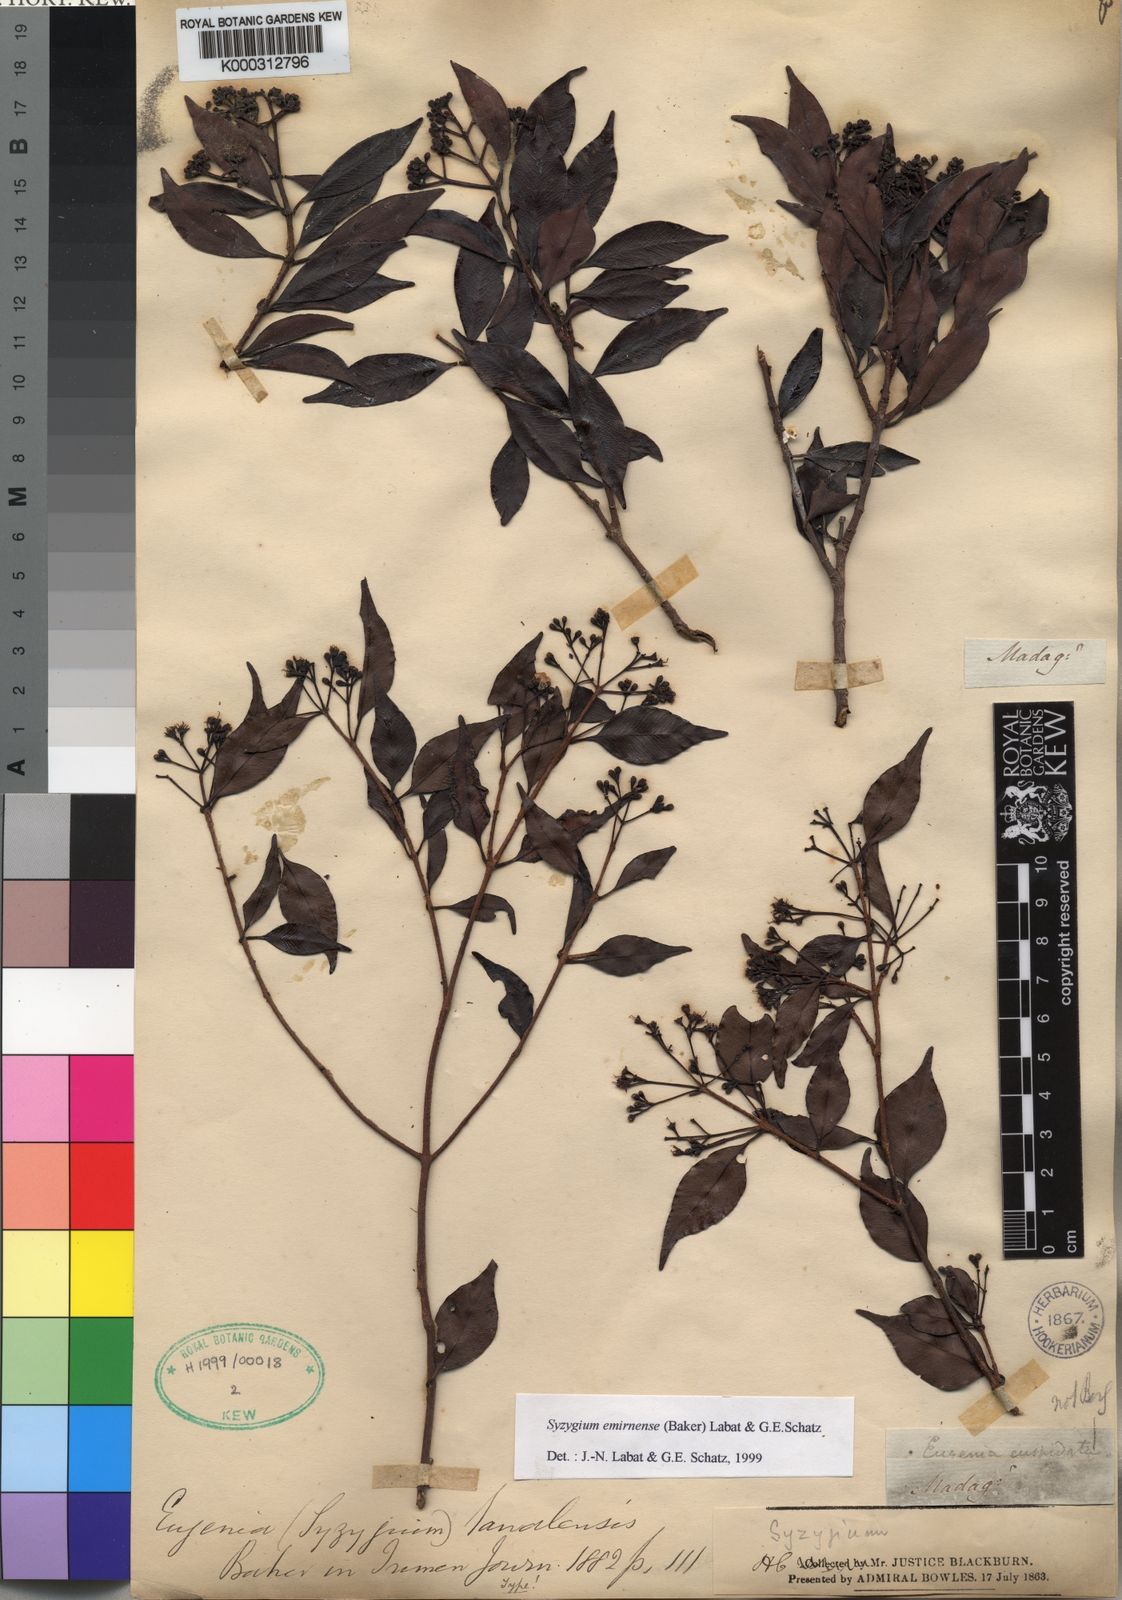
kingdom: Plantae
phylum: Tracheophyta
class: Magnoliopsida
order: Myrtales
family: Myrtaceae
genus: Syzygium
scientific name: Syzygium
